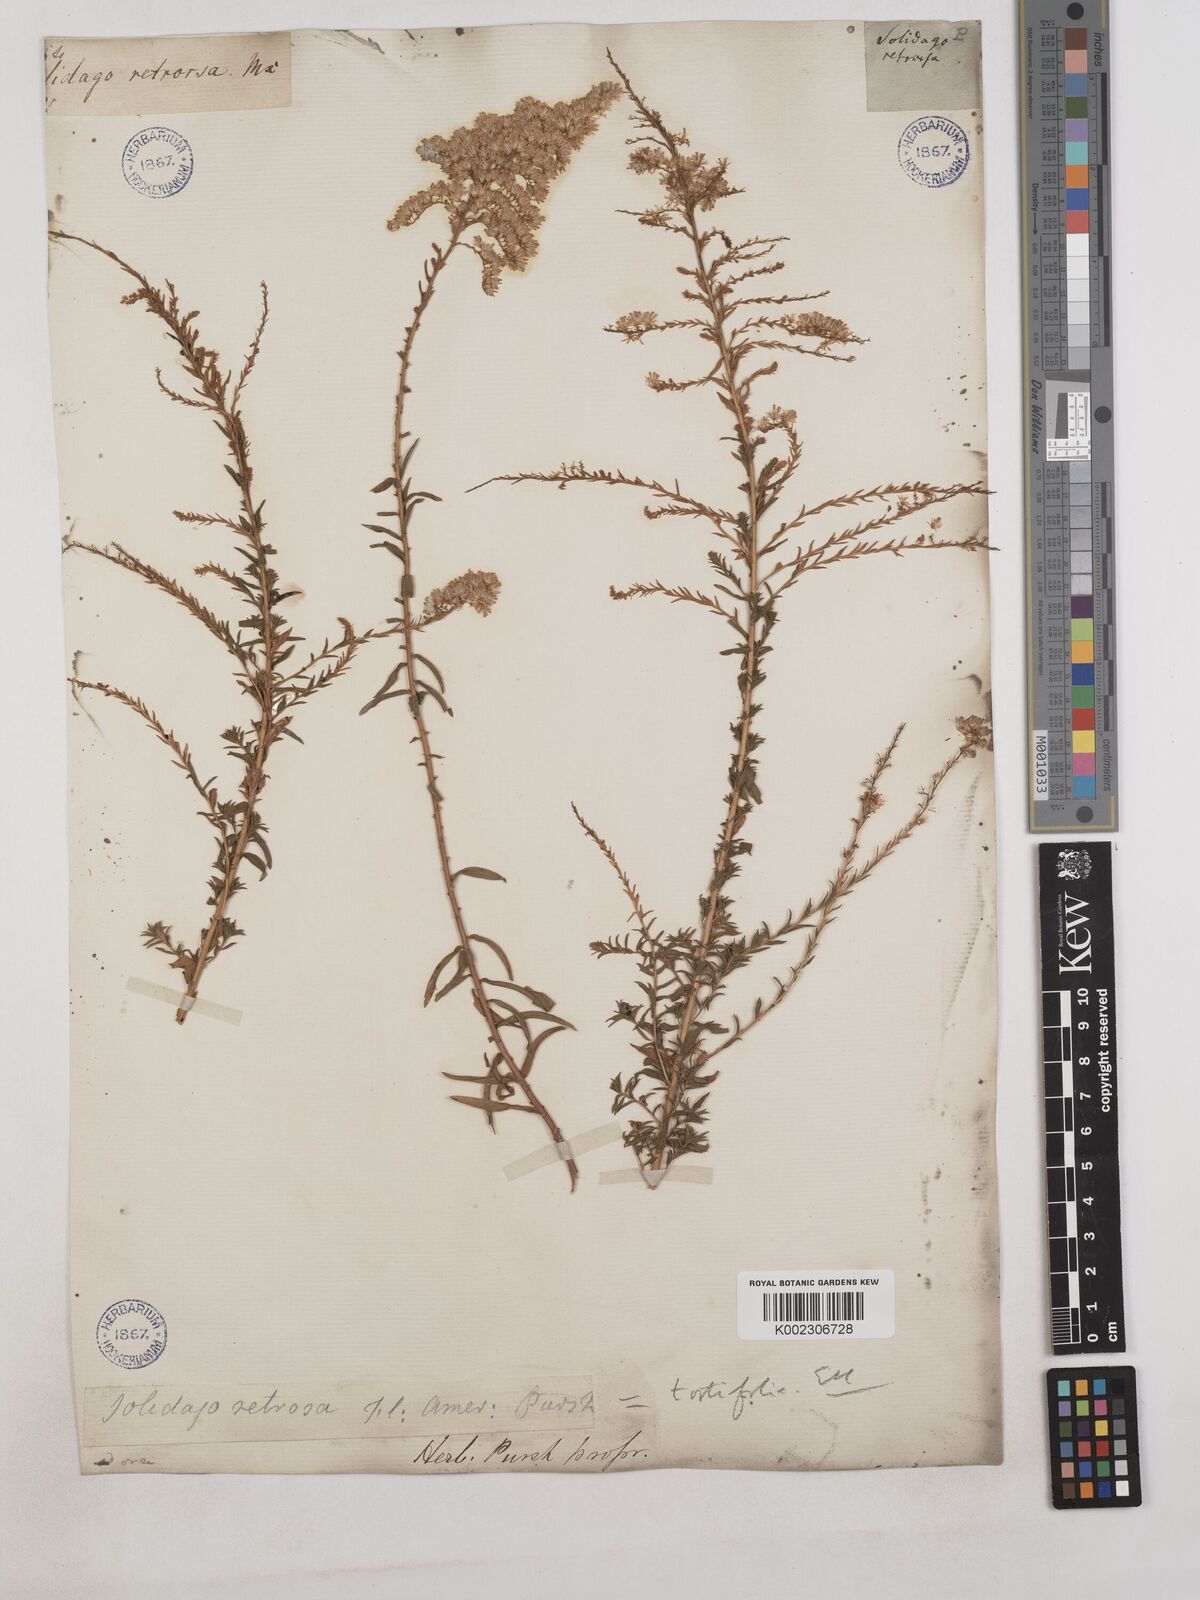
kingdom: Plantae
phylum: Tracheophyta
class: Magnoliopsida
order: Asterales
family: Asteraceae
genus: Solidago
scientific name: Solidago tortifolia
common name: Twisted-leaf goldenrod
